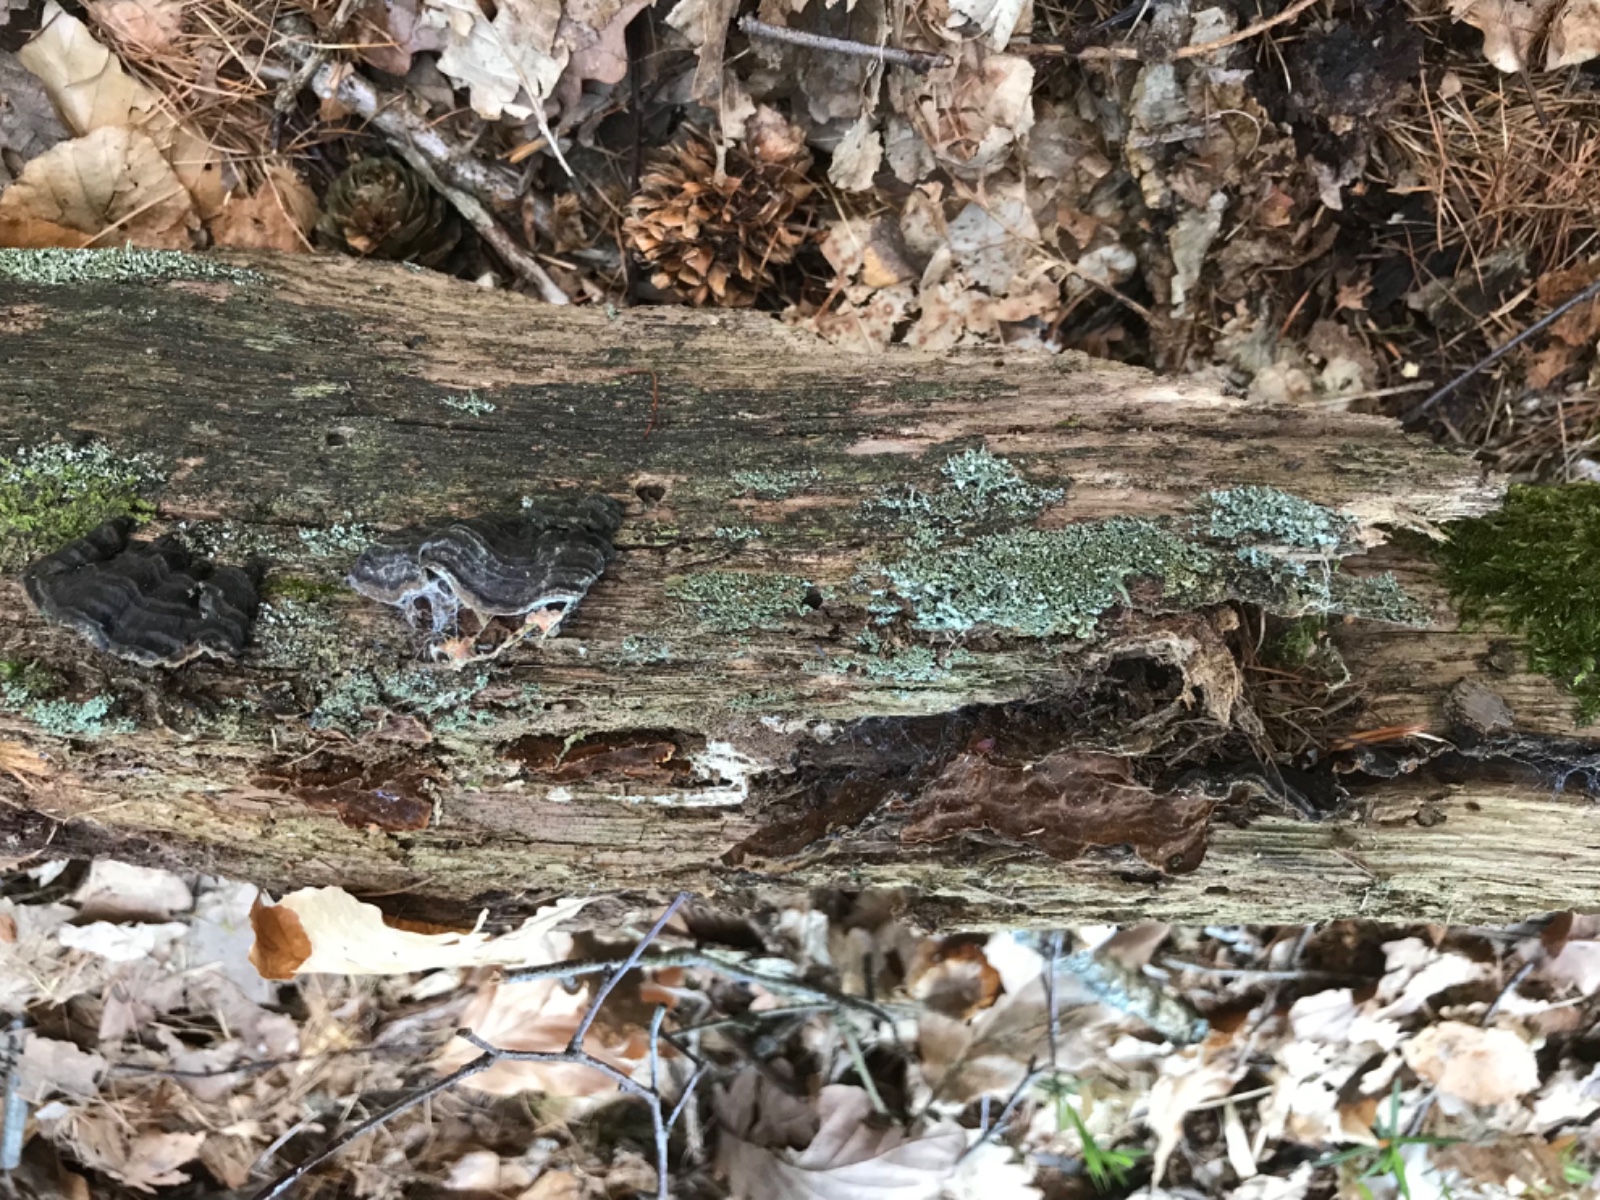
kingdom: Fungi
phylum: Basidiomycota
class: Agaricomycetes
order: Hymenochaetales
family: Hymenochaetaceae
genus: Hymenochaete
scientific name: Hymenochaete rubiginosa
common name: stiv ruslædersvamp
